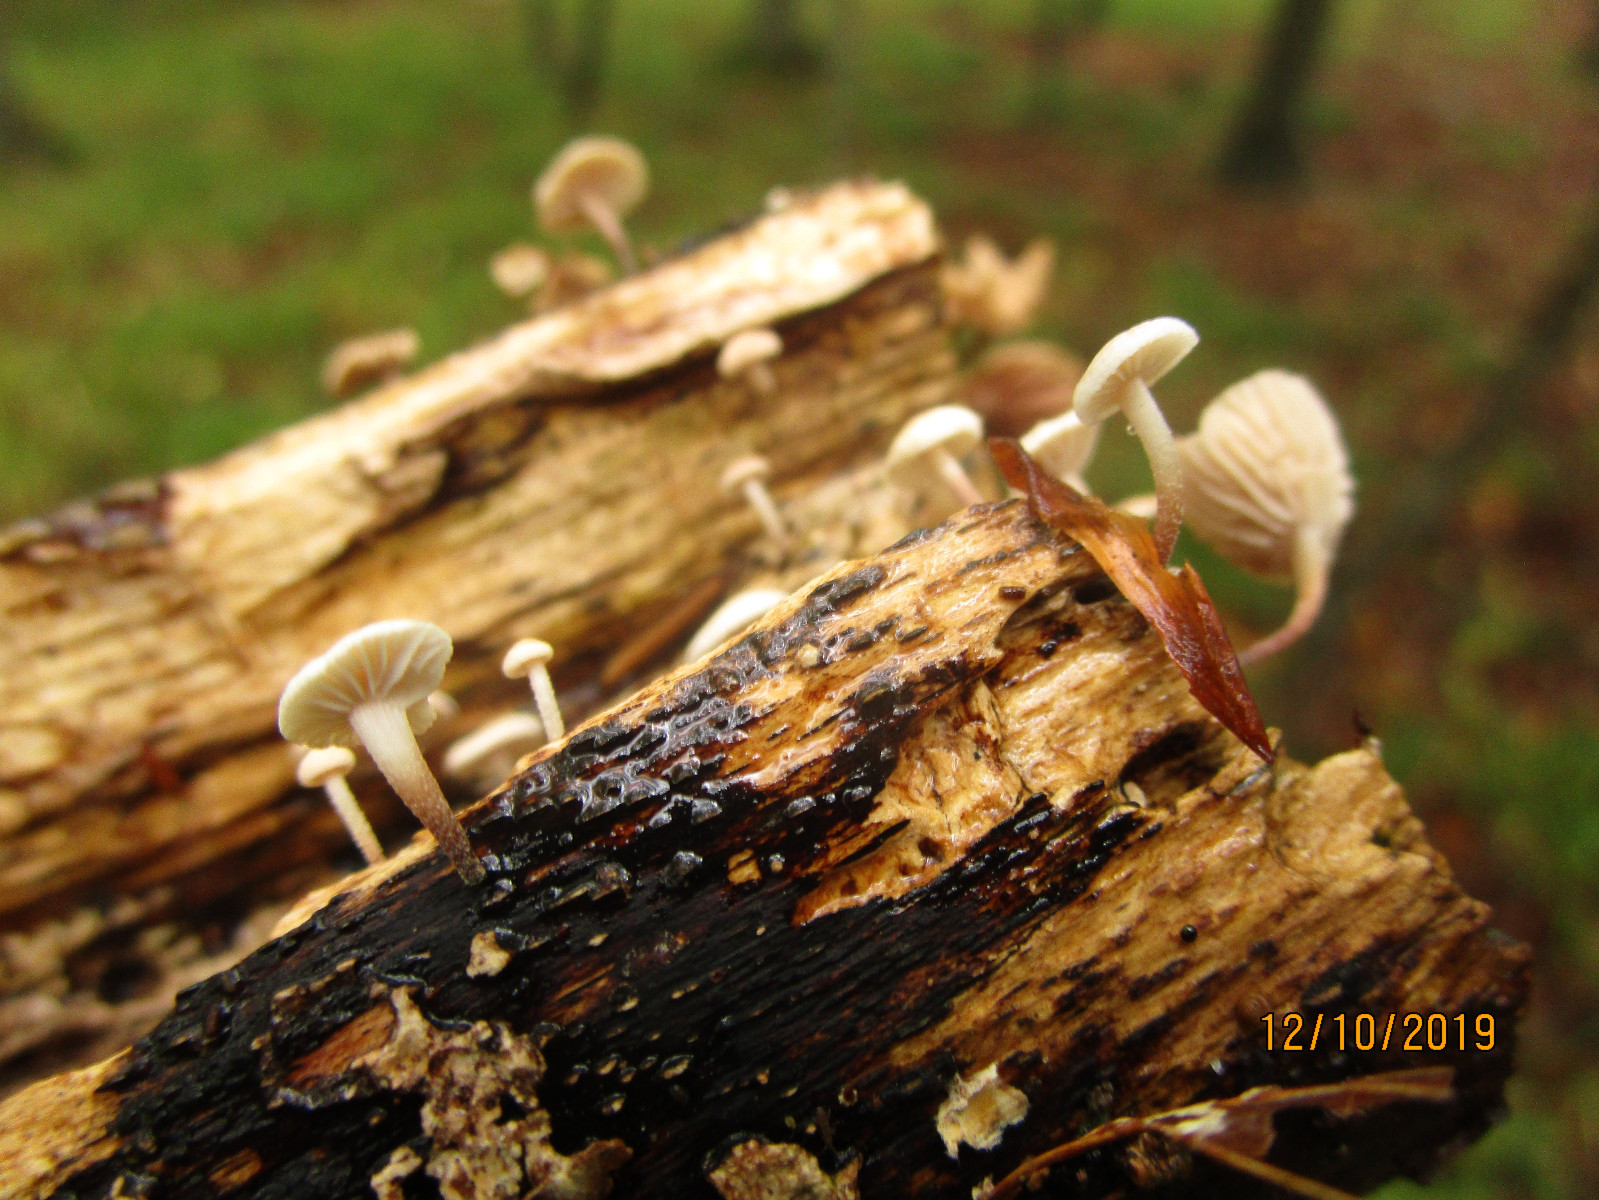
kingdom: Fungi
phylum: Basidiomycota
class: Agaricomycetes
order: Agaricales
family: Omphalotaceae
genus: Collybiopsis
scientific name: Collybiopsis ramealis
